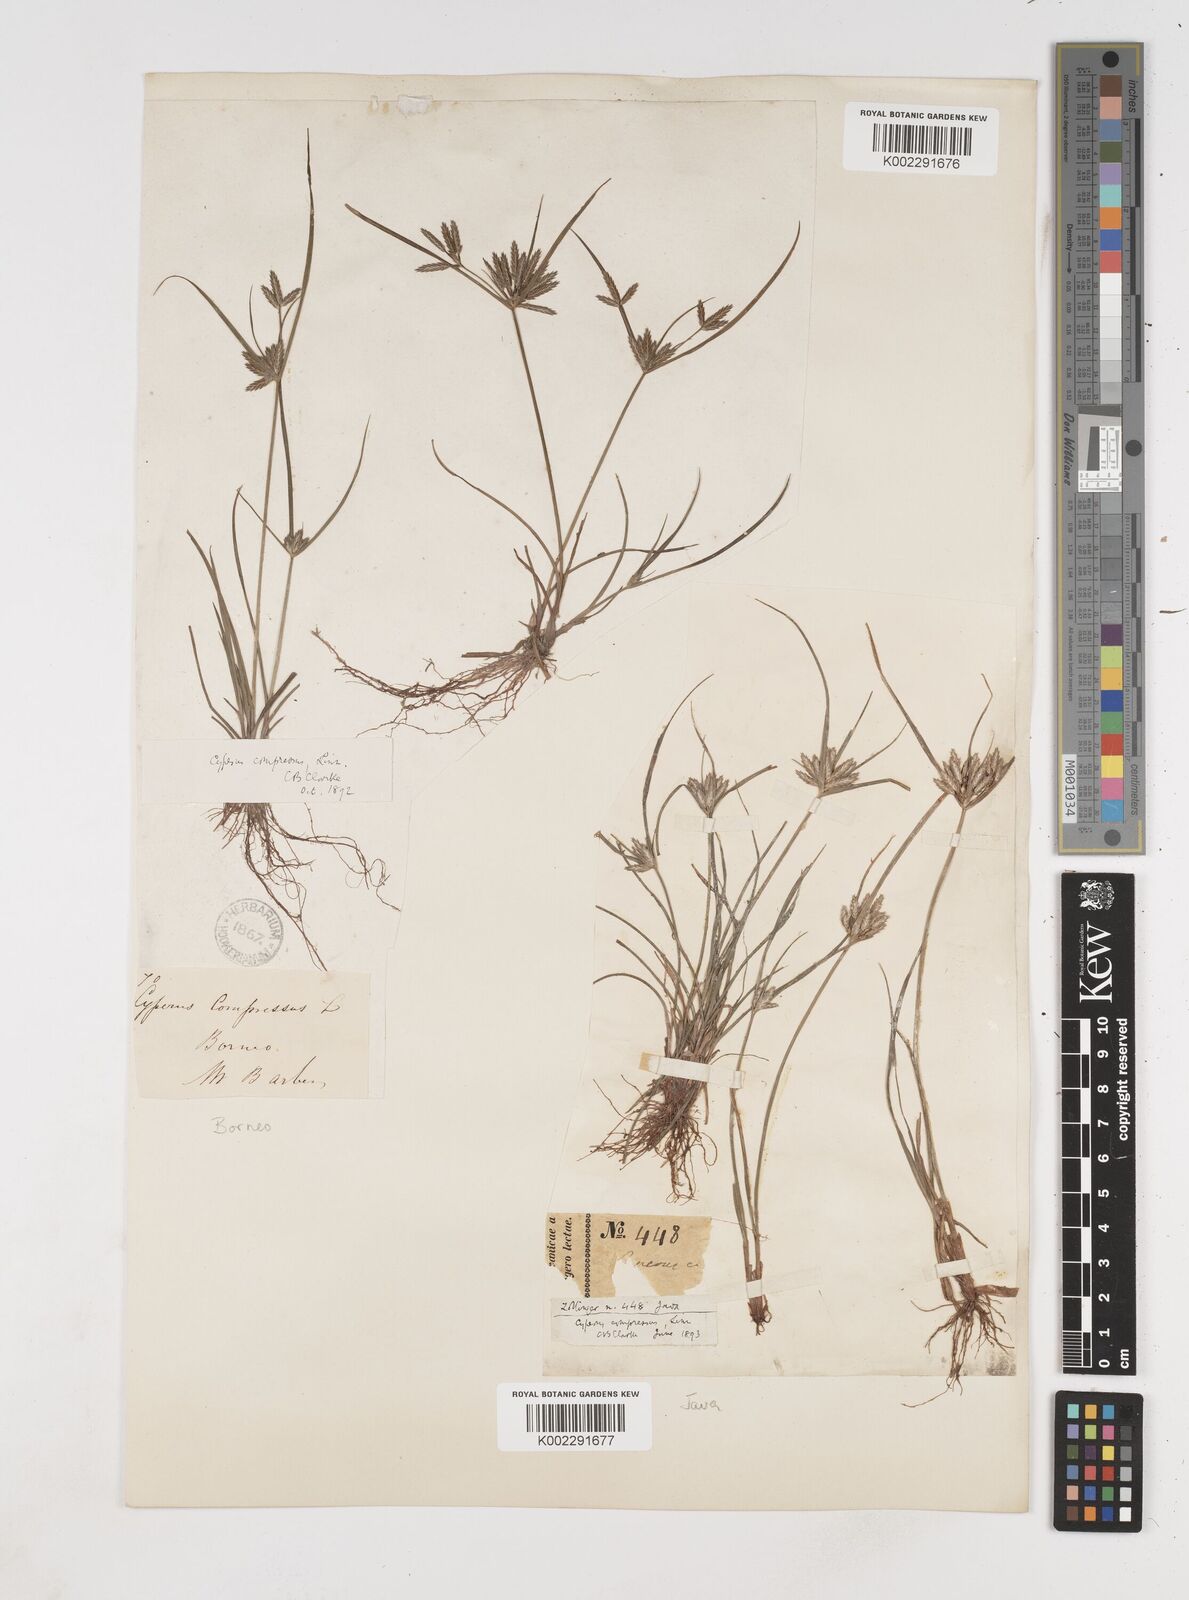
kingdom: Plantae
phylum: Tracheophyta
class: Liliopsida
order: Poales
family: Cyperaceae
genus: Cyperus
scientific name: Cyperus compressus
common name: Poorland flatsedge
